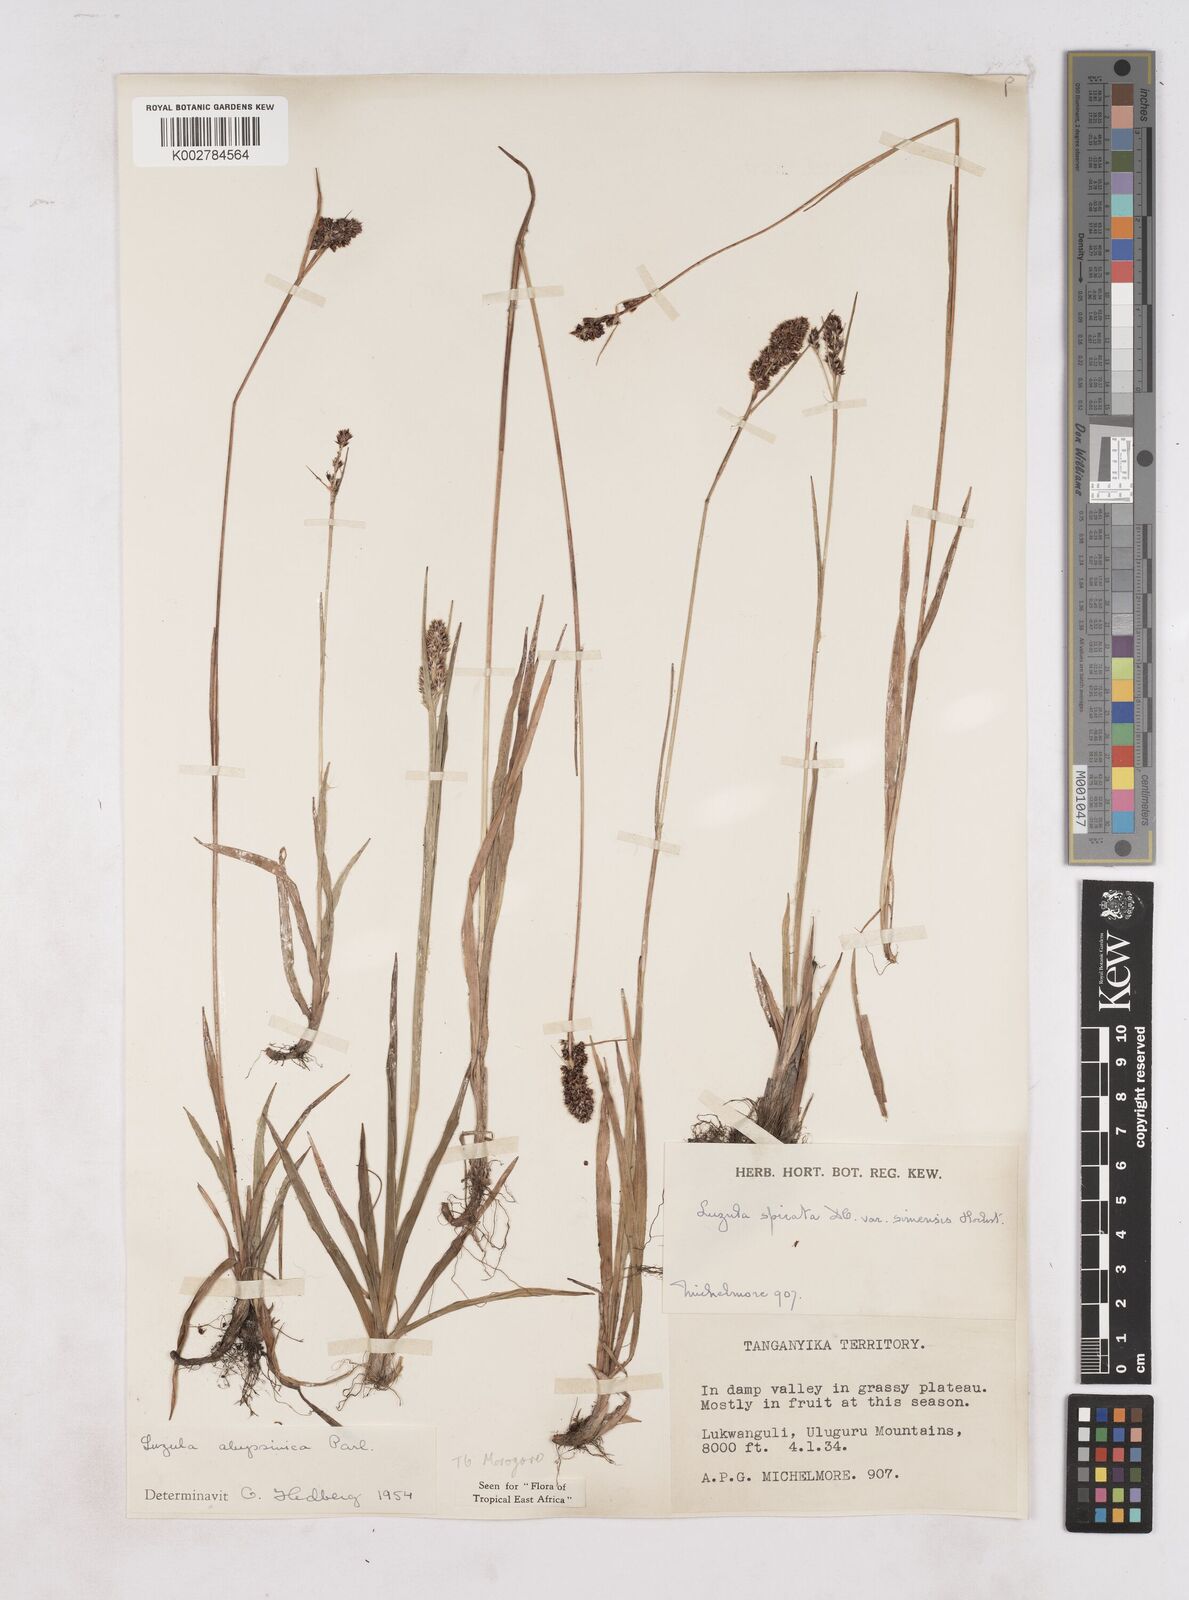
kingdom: Plantae
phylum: Tracheophyta
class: Liliopsida
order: Poales
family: Juncaceae
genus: Luzula
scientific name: Luzula abyssinica
